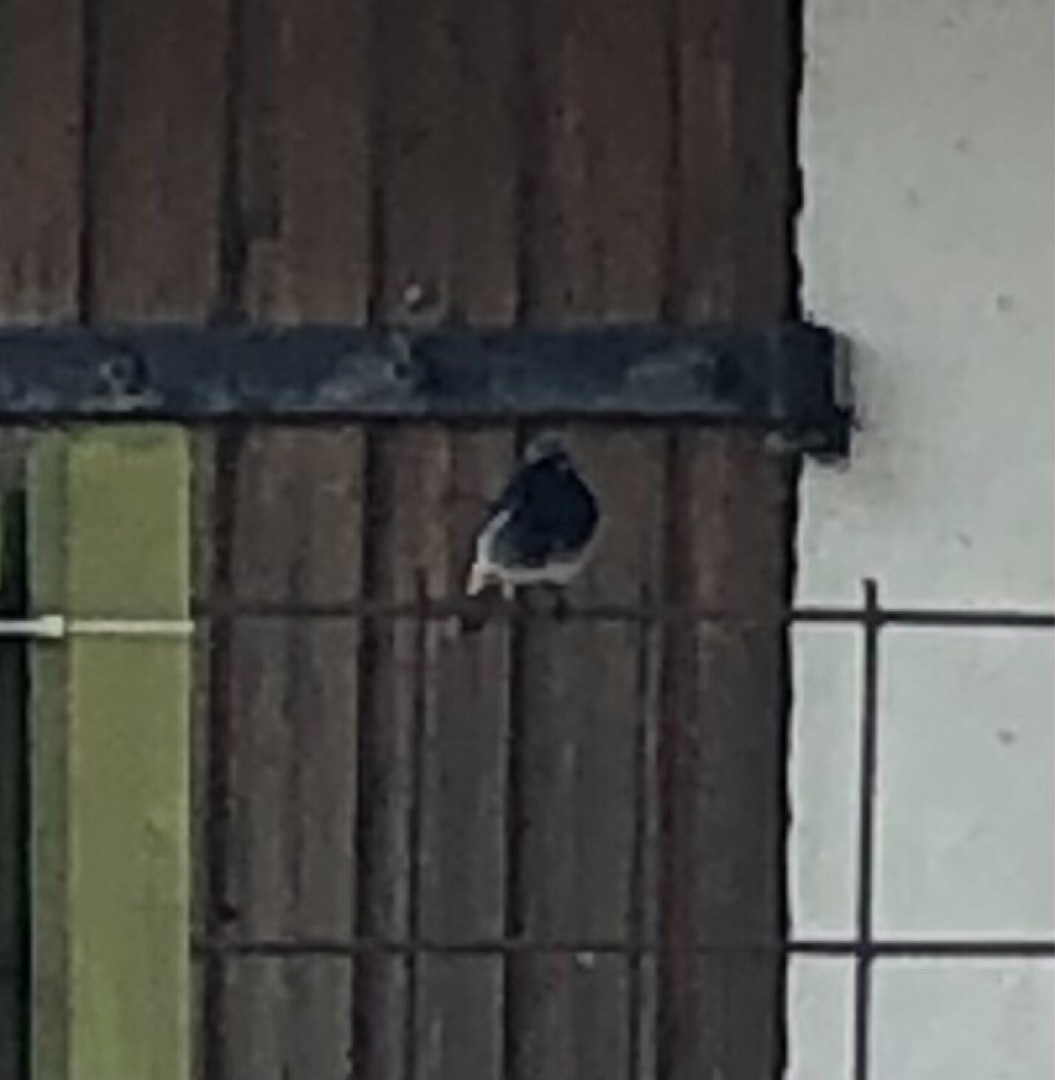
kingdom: Animalia
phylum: Chordata
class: Aves
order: Passeriformes
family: Muscicapidae
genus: Phoenicurus
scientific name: Phoenicurus ochruros
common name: Husrødstjert
